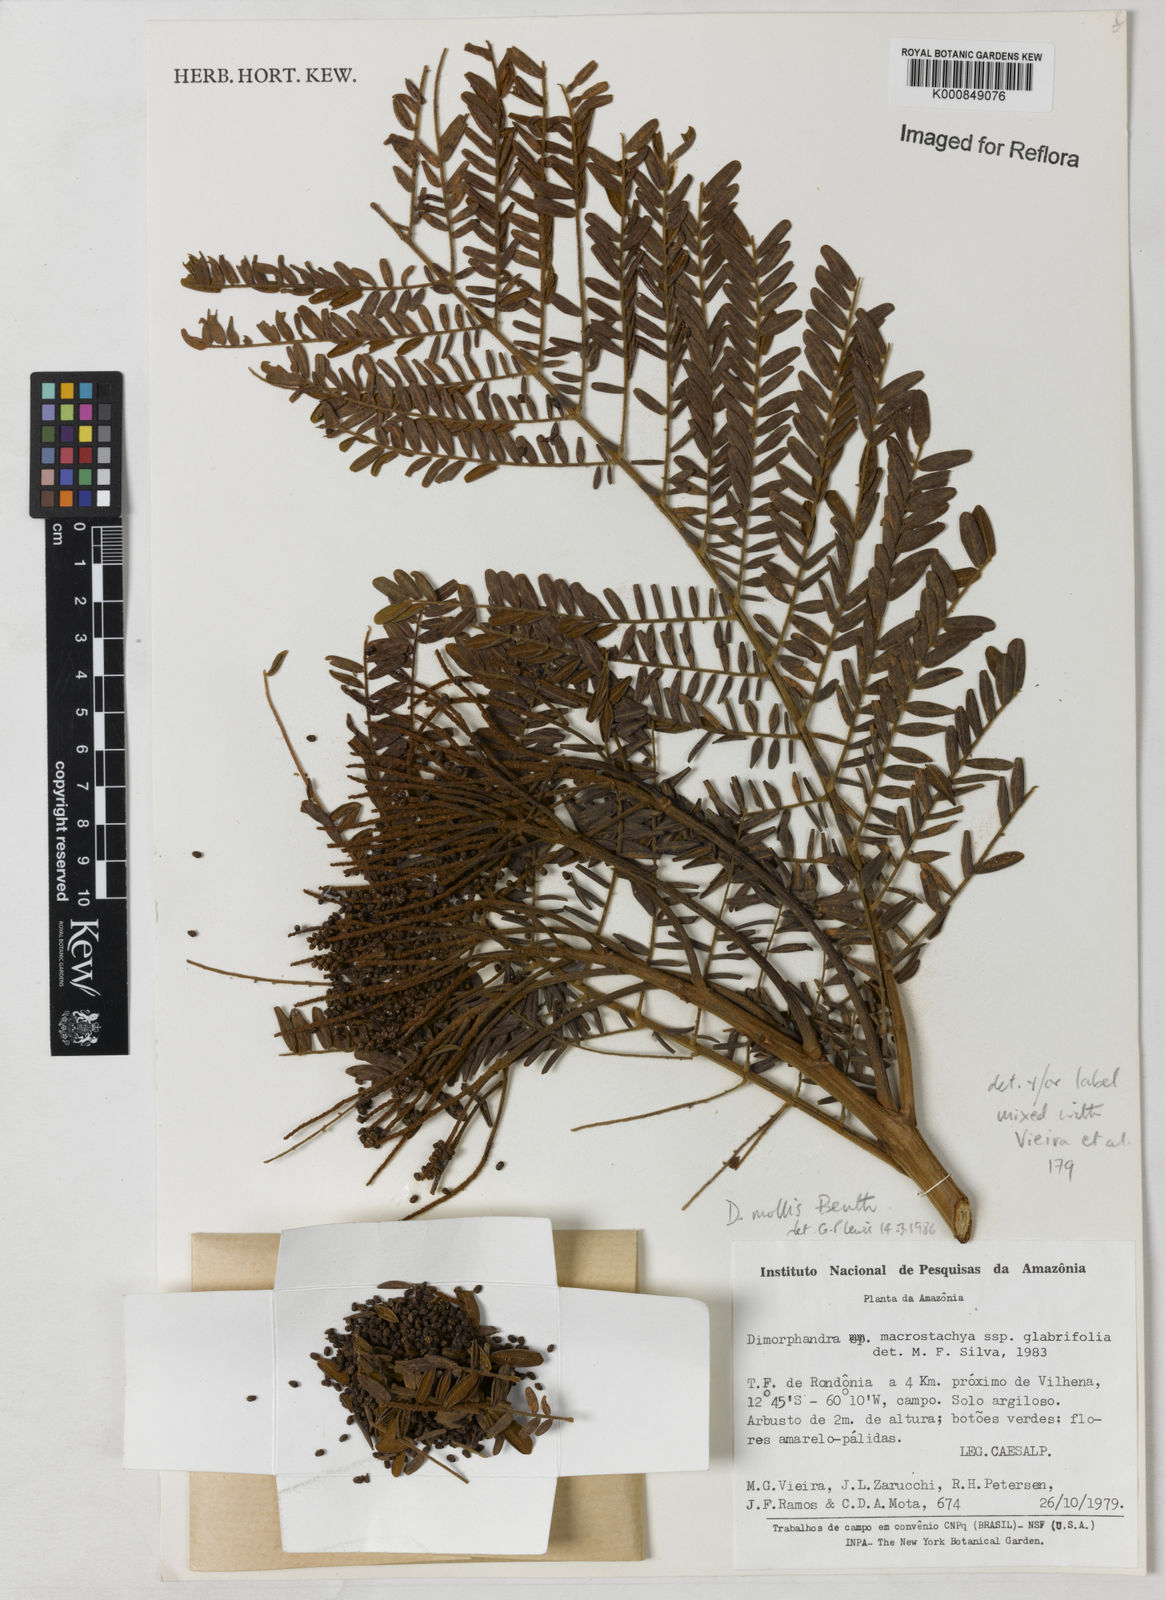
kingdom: Plantae
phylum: Tracheophyta
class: Magnoliopsida
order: Fabales
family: Fabaceae
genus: Dimorphandra
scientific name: Dimorphandra mollis
